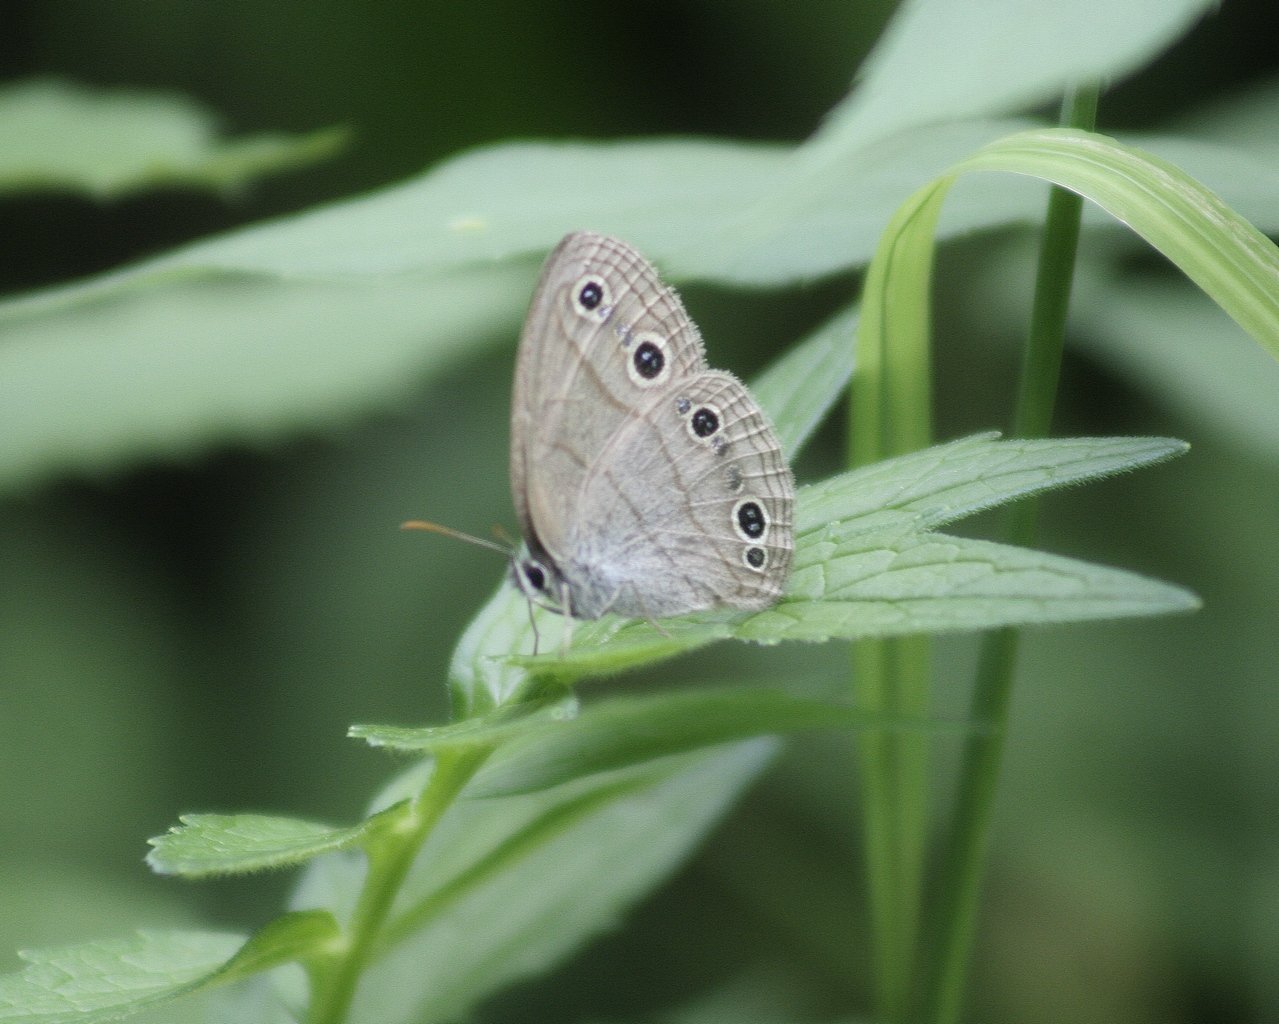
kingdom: Animalia
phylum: Arthropoda
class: Insecta
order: Lepidoptera
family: Nymphalidae
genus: Euptychia
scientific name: Euptychia cymela
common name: Little Wood Satyr
